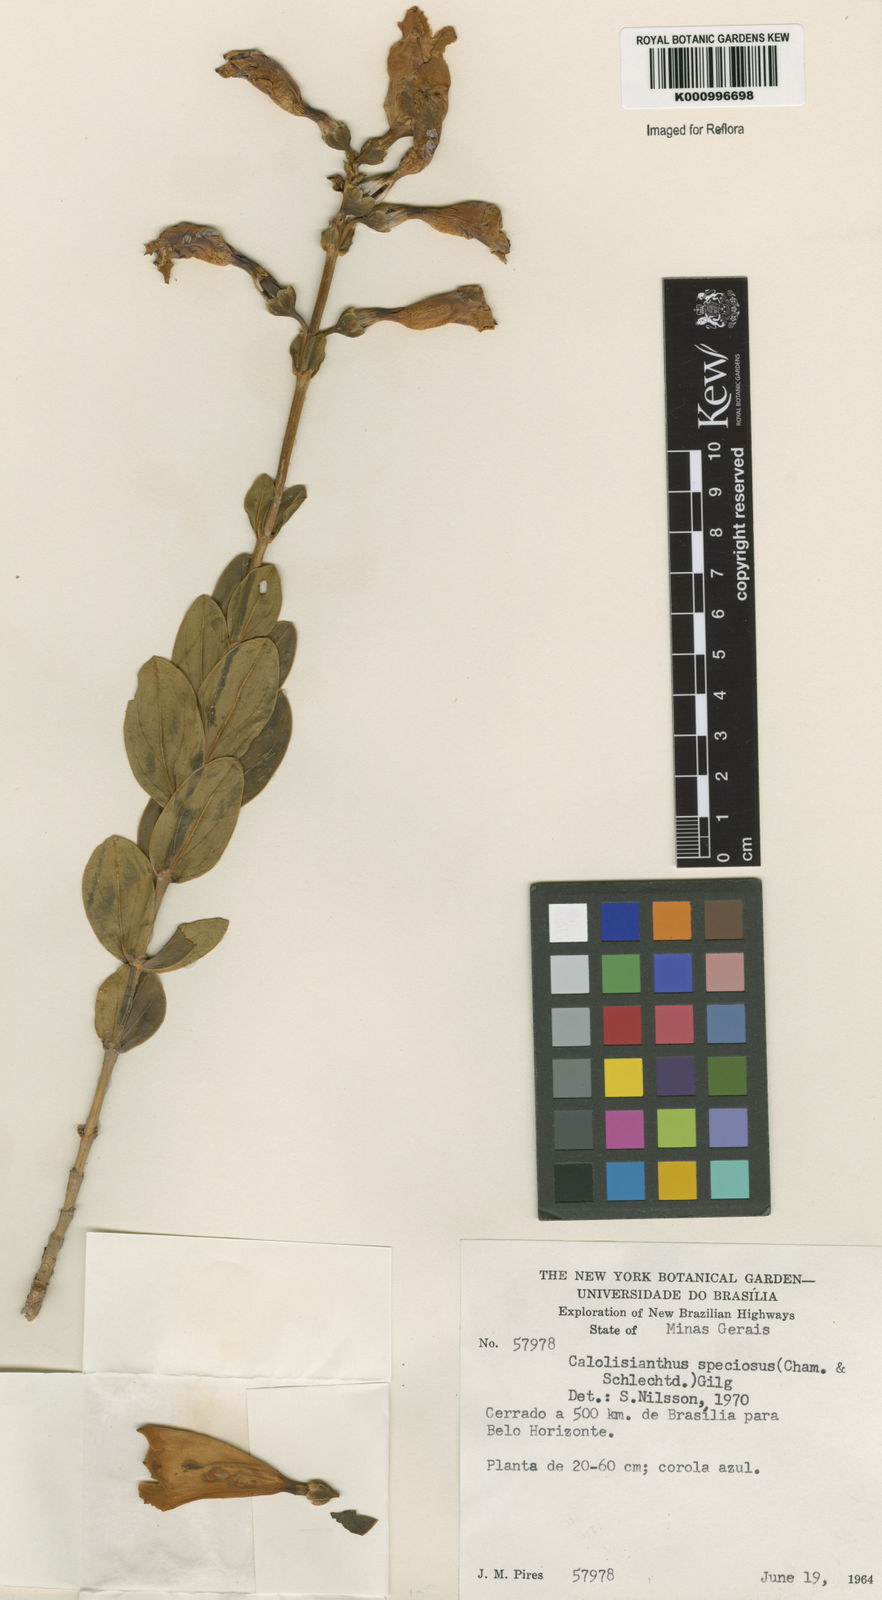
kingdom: Plantae
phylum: Tracheophyta
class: Magnoliopsida
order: Gentianales
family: Gentianaceae
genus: Calolisianthus
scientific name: Calolisianthus speciosus
